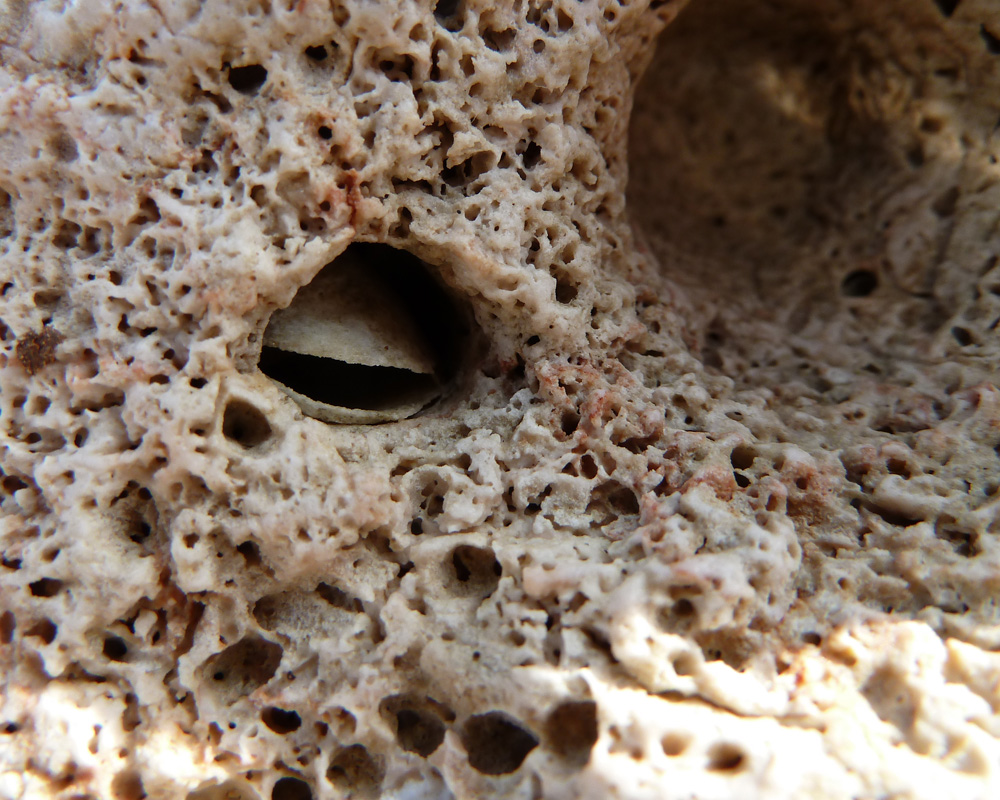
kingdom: Animalia
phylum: Mollusca
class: Bivalvia
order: Mytilida
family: Mytilidae
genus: Lithophaga
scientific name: Lithophaga lithophaga
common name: European date mussel
